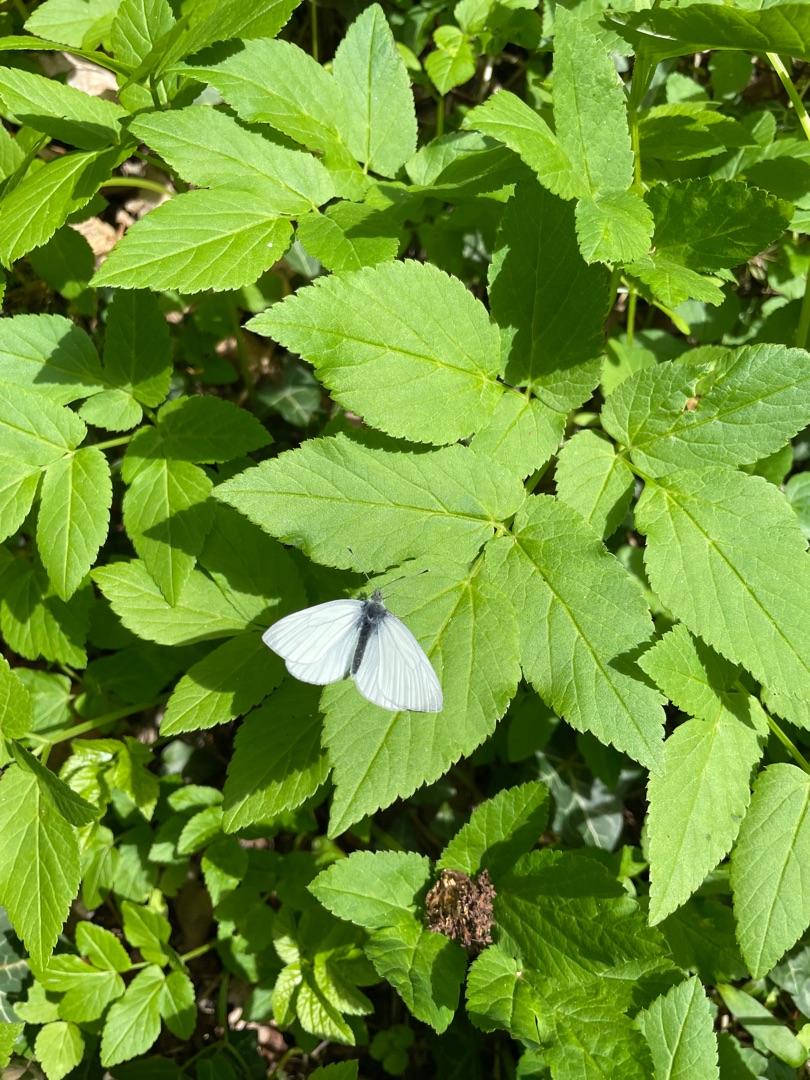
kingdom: Animalia
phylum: Arthropoda
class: Insecta
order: Lepidoptera
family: Pieridae
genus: Pieris
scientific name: Pieris napi
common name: Grønåret kålsommerfugl
